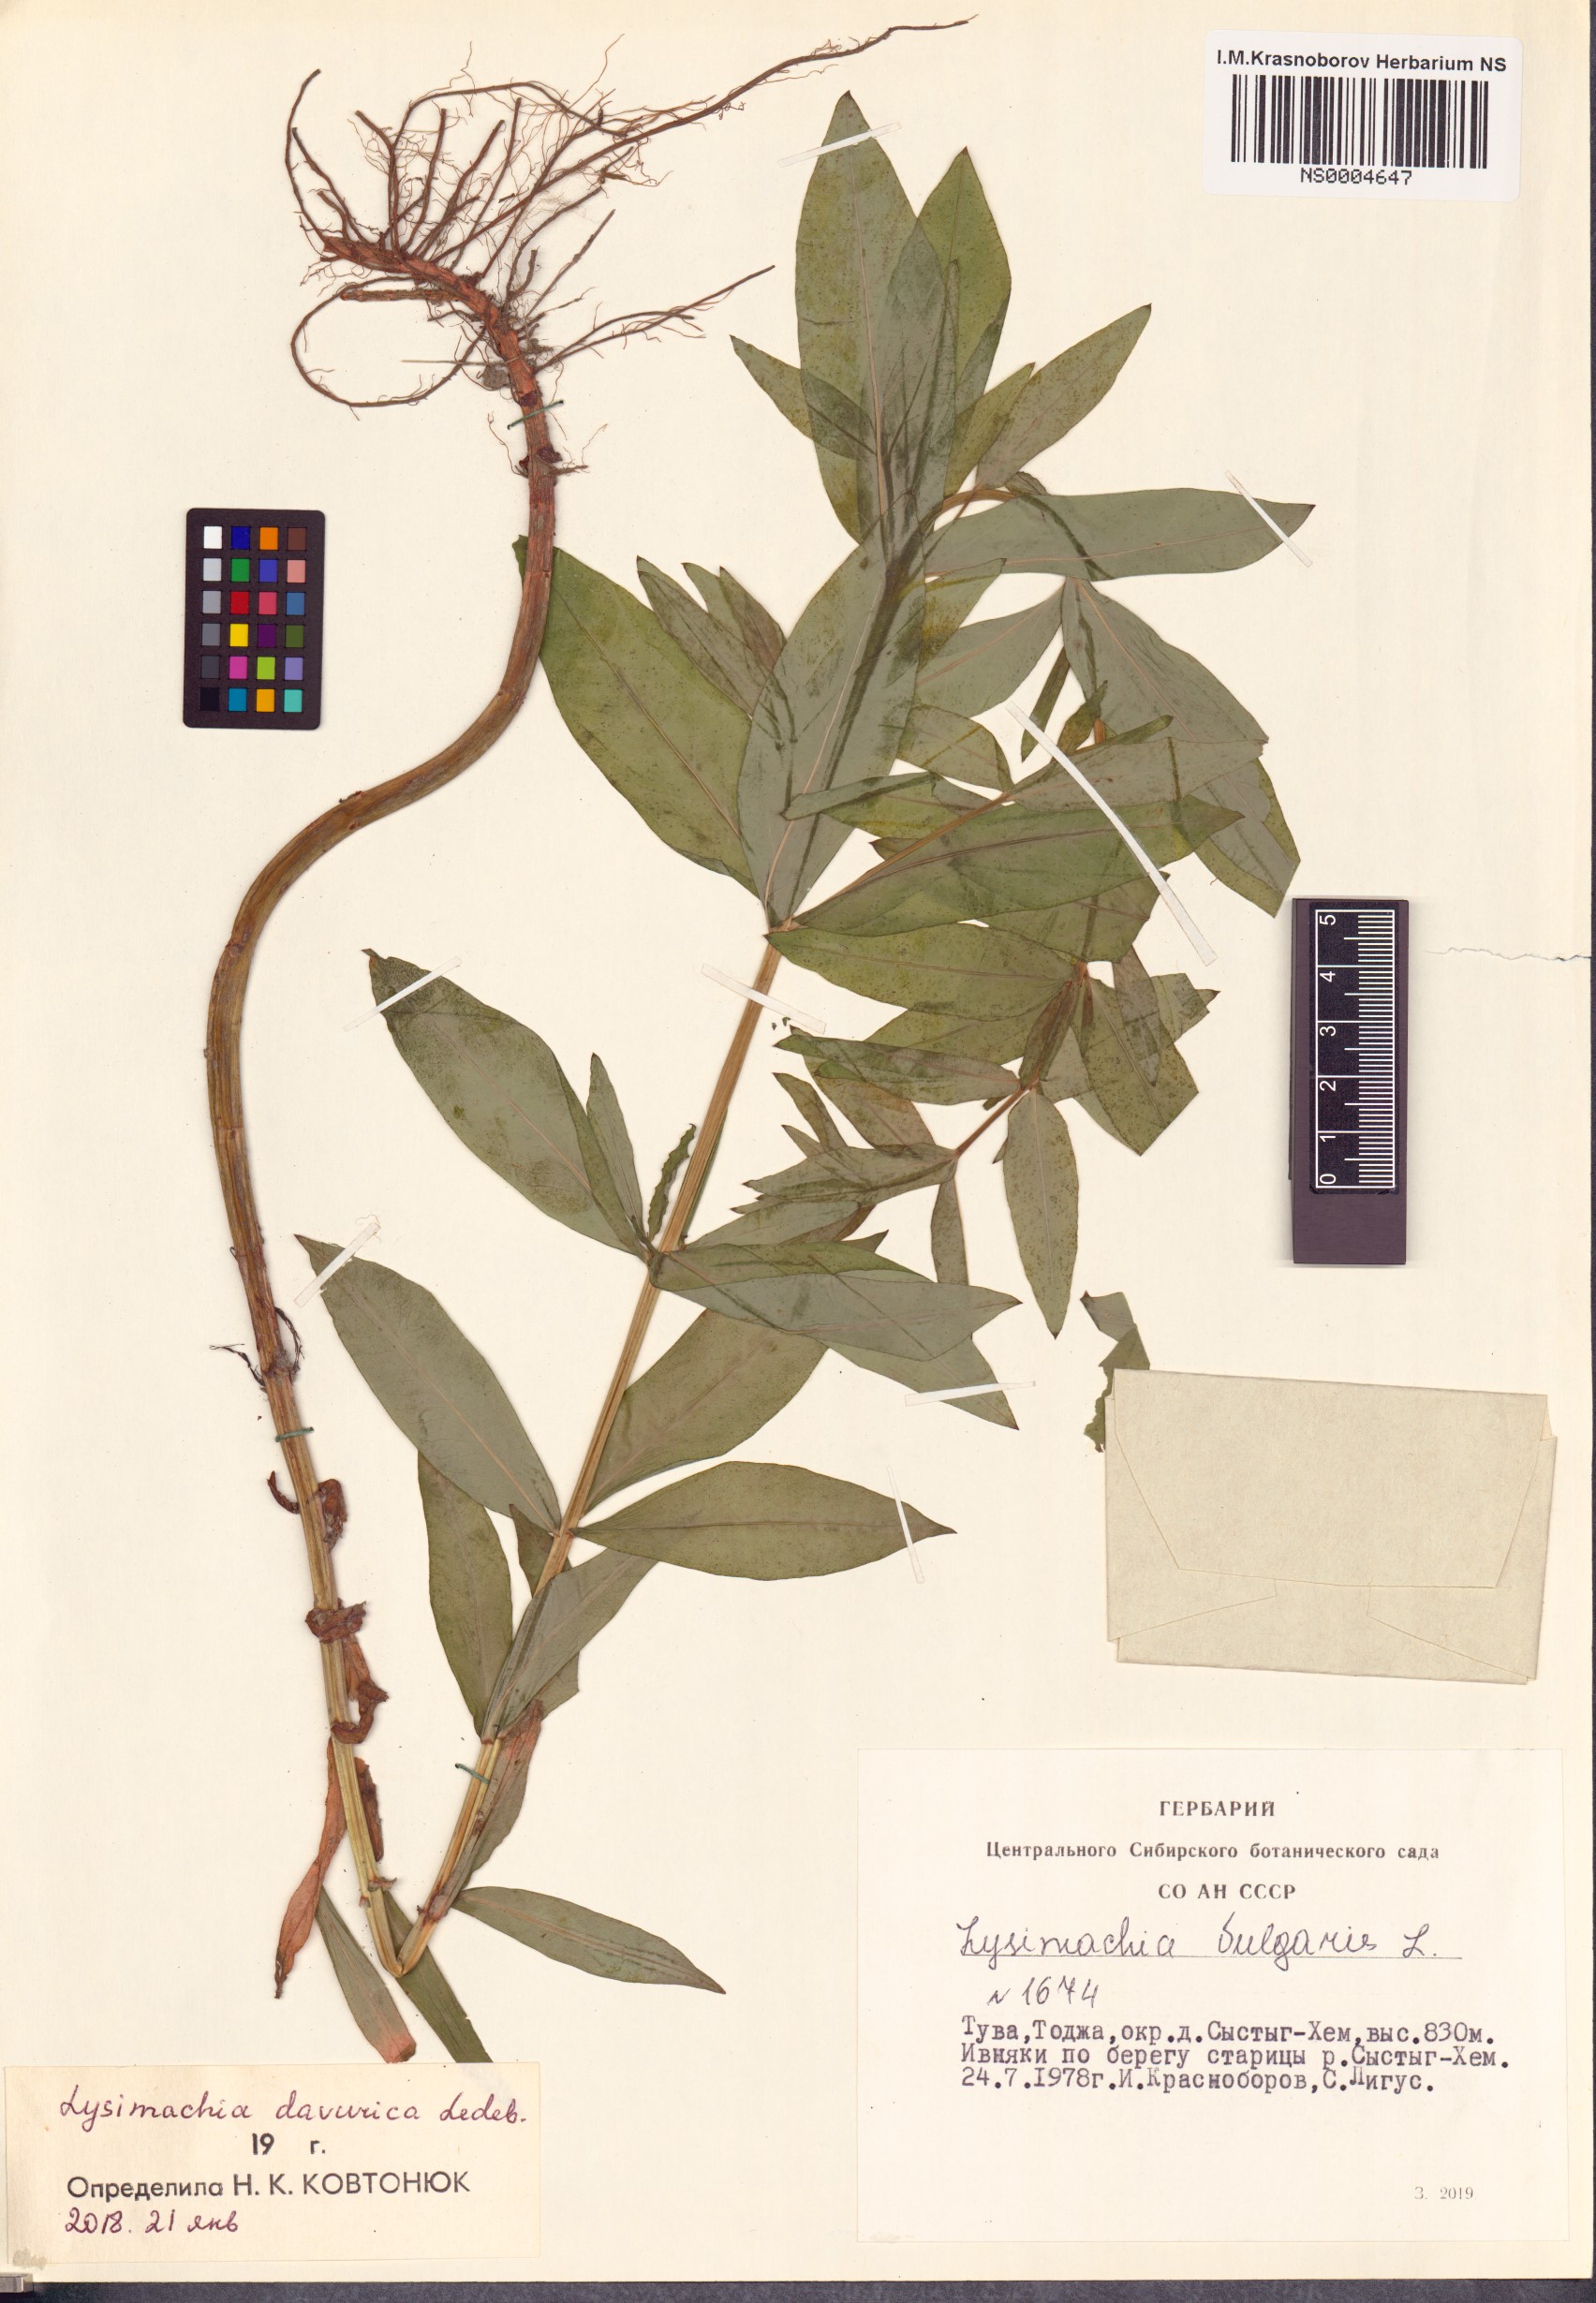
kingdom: Plantae
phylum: Tracheophyta
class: Magnoliopsida
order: Ericales
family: Primulaceae
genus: Lysimachia
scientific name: Lysimachia davurica
